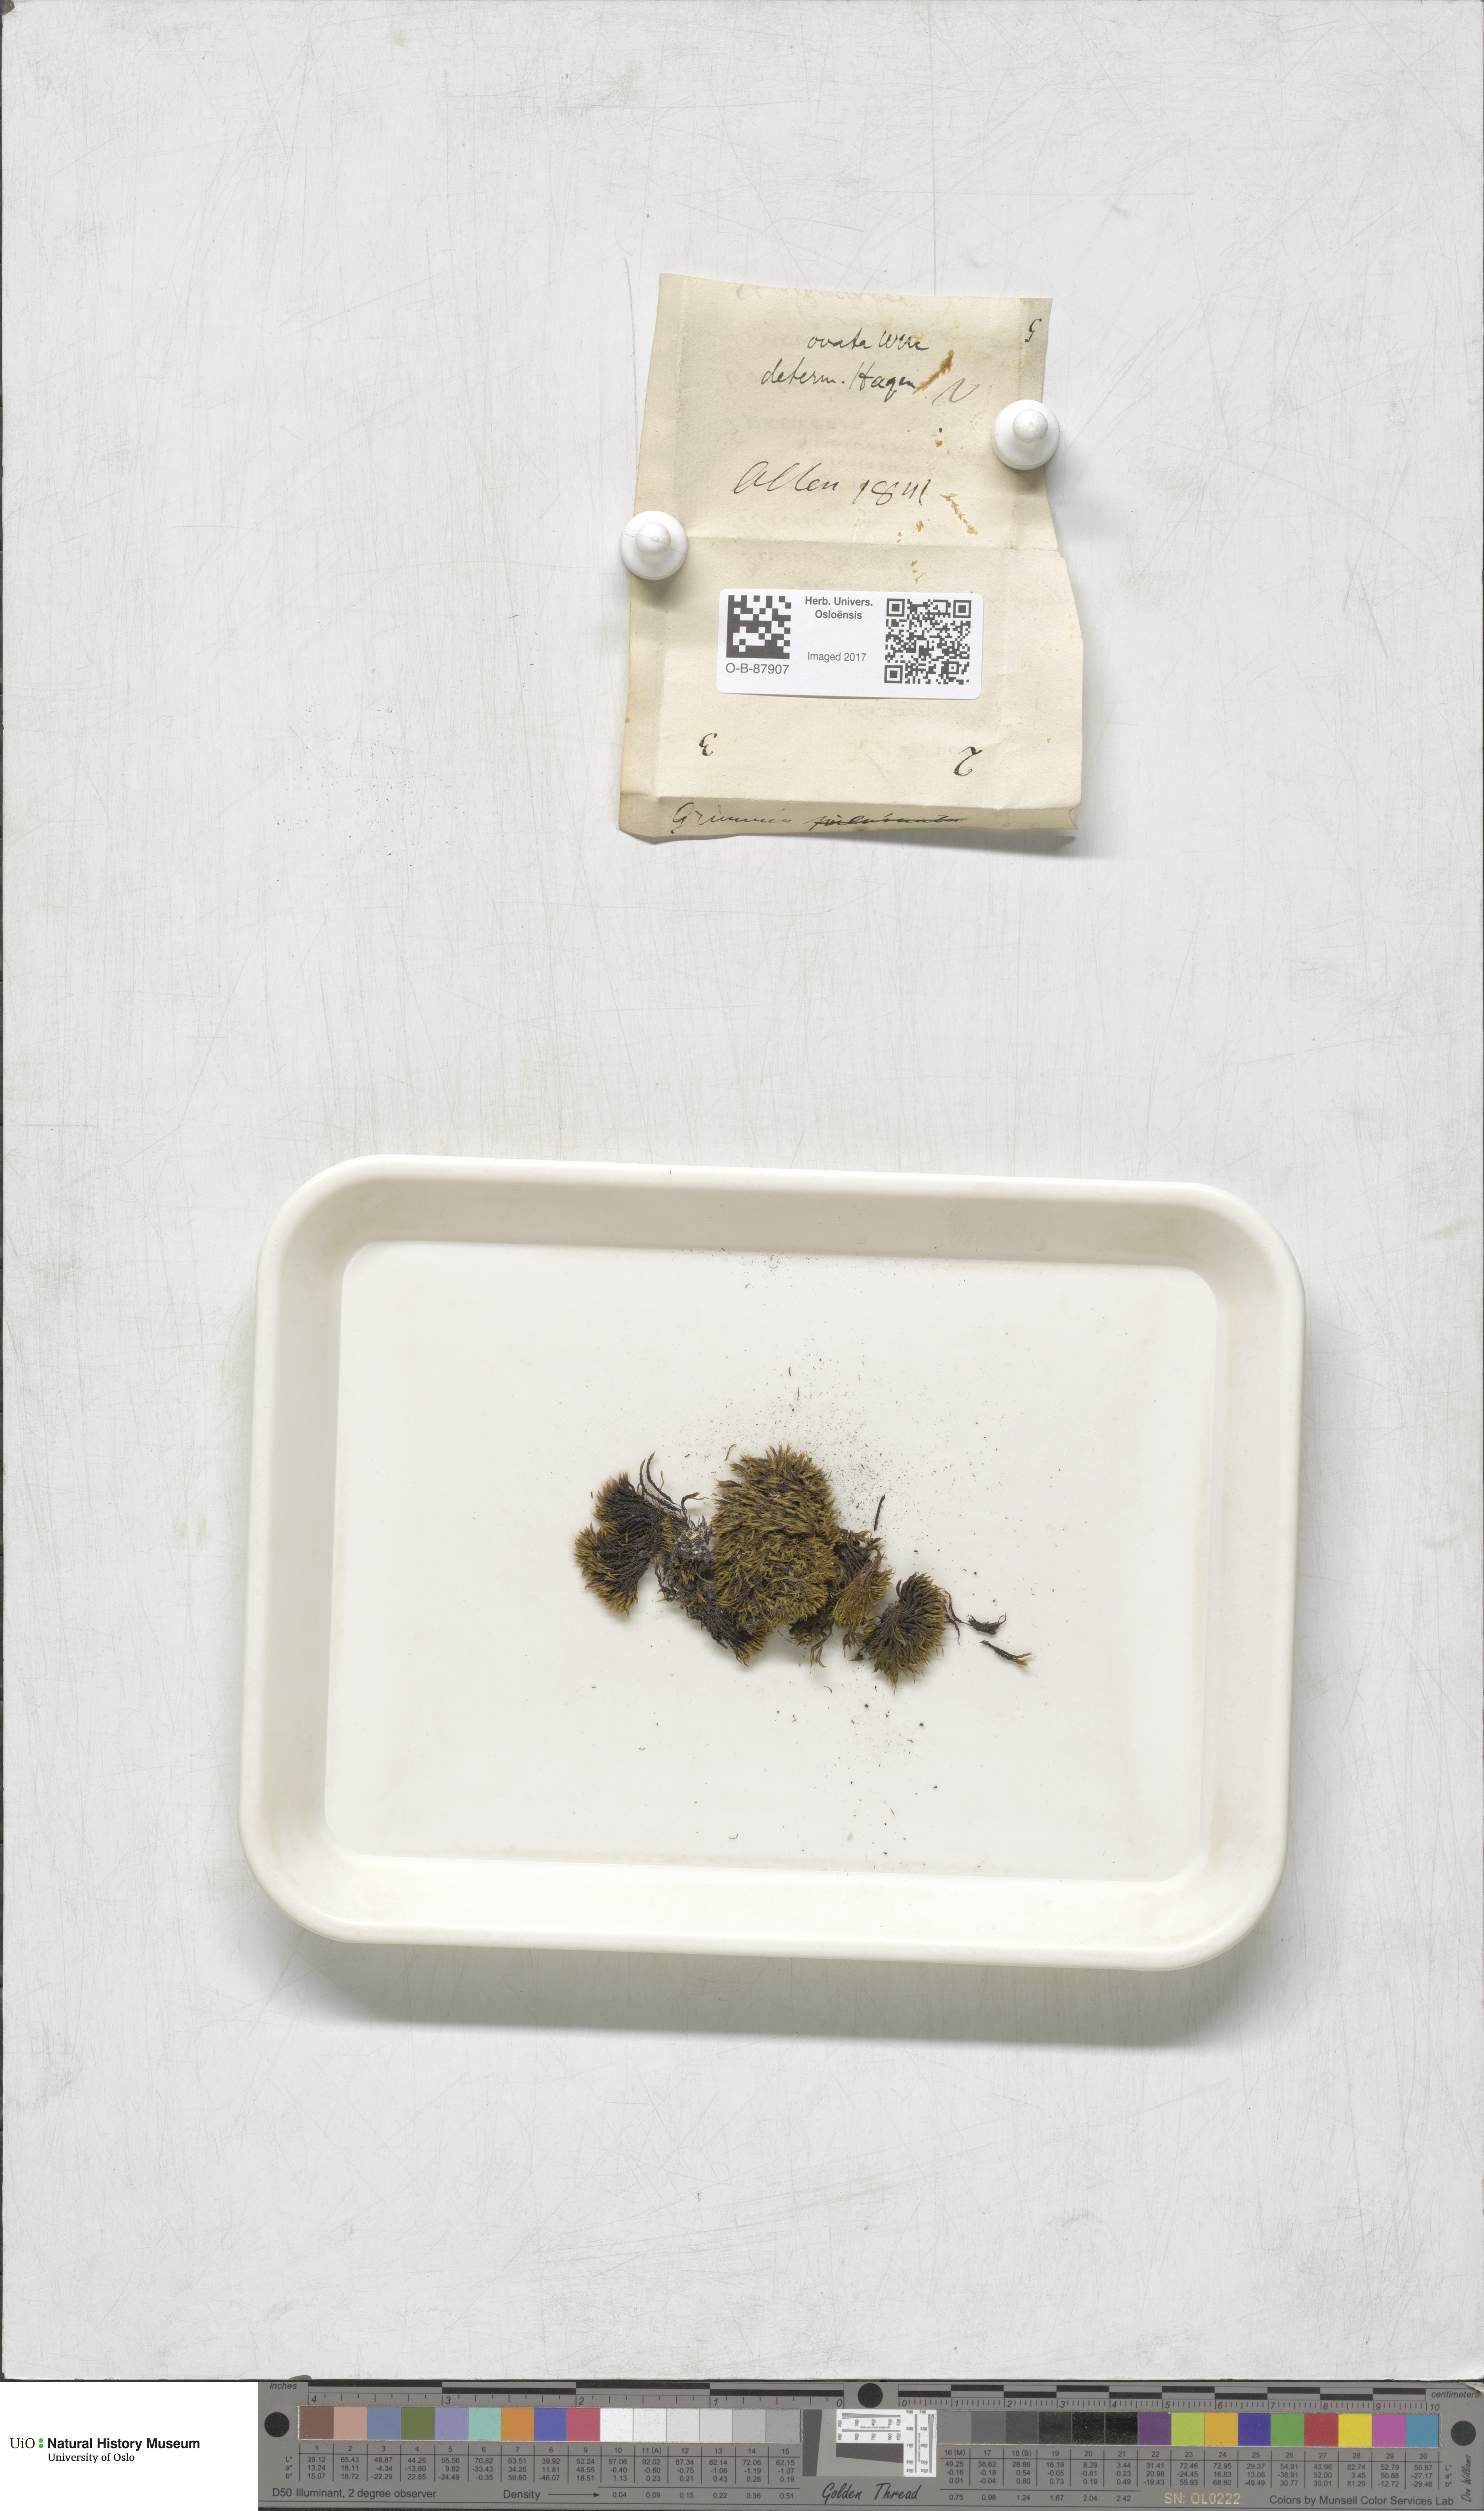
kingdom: Plantae
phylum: Bryophyta
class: Bryopsida
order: Grimmiales
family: Grimmiaceae
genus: Grimmia
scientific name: Grimmia ovalis
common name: Oval grimmia
